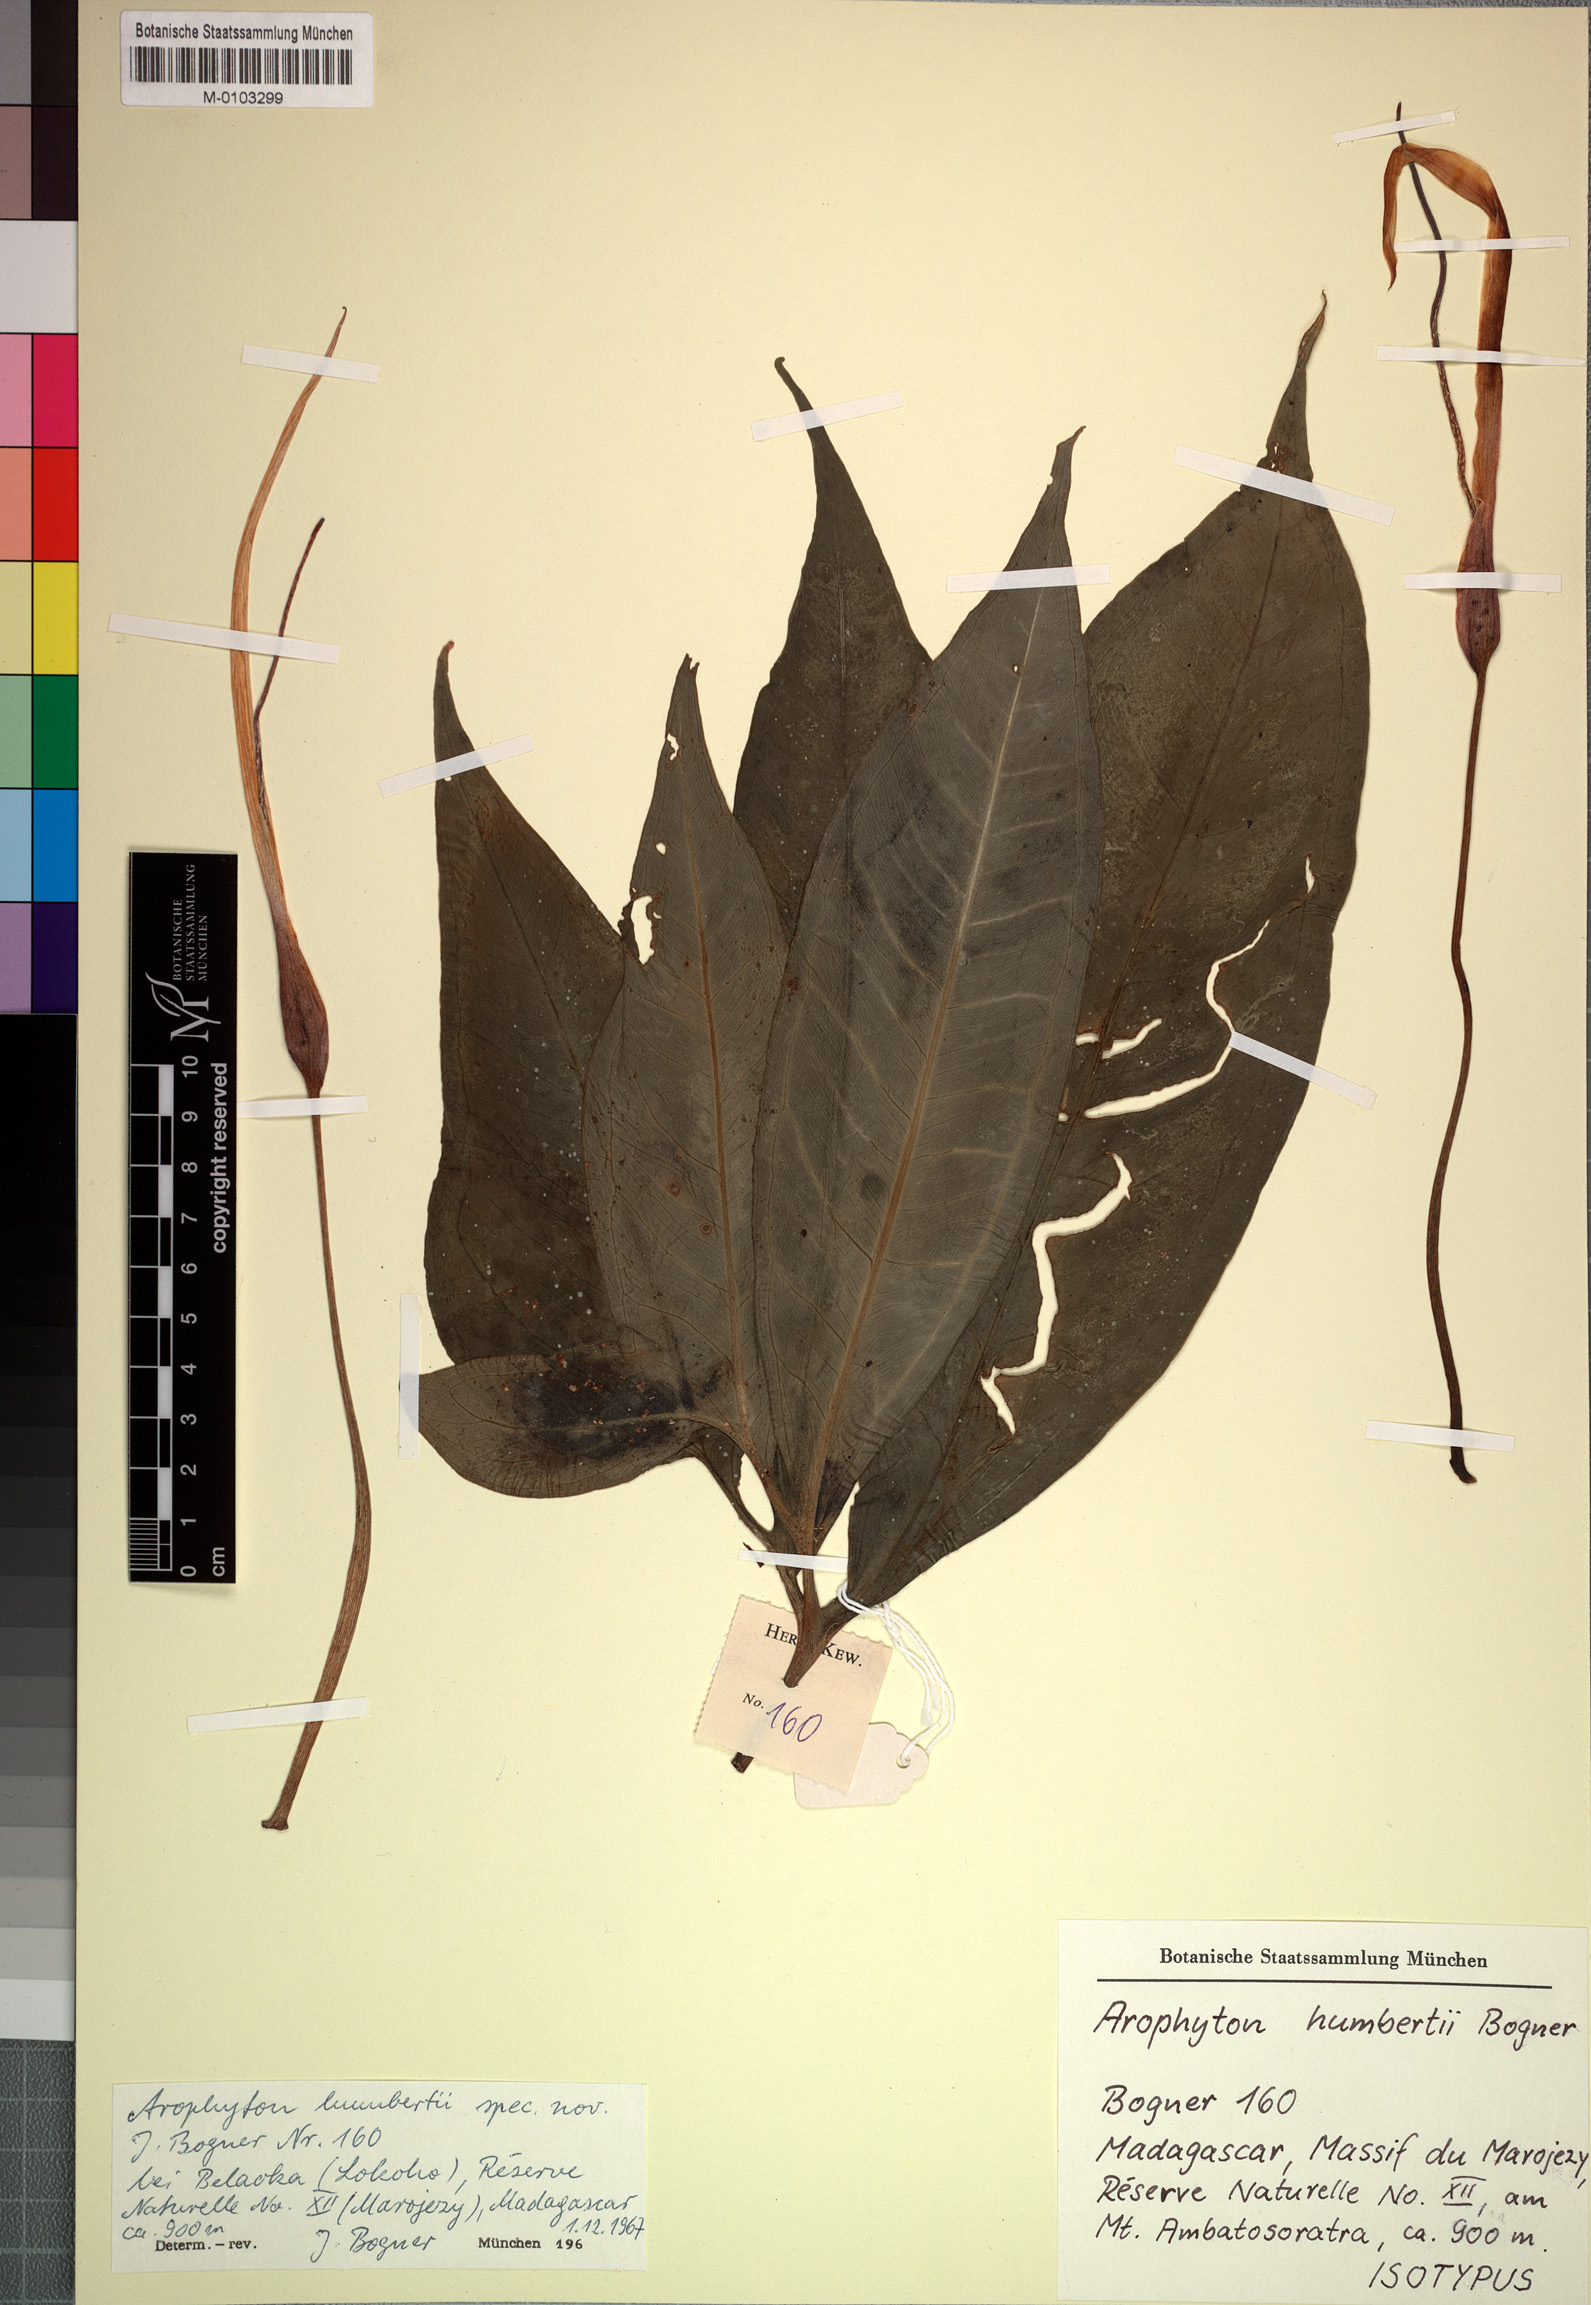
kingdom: Plantae
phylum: Tracheophyta
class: Liliopsida
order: Alismatales
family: Araceae
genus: Arophyton
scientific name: Arophyton humbertii
